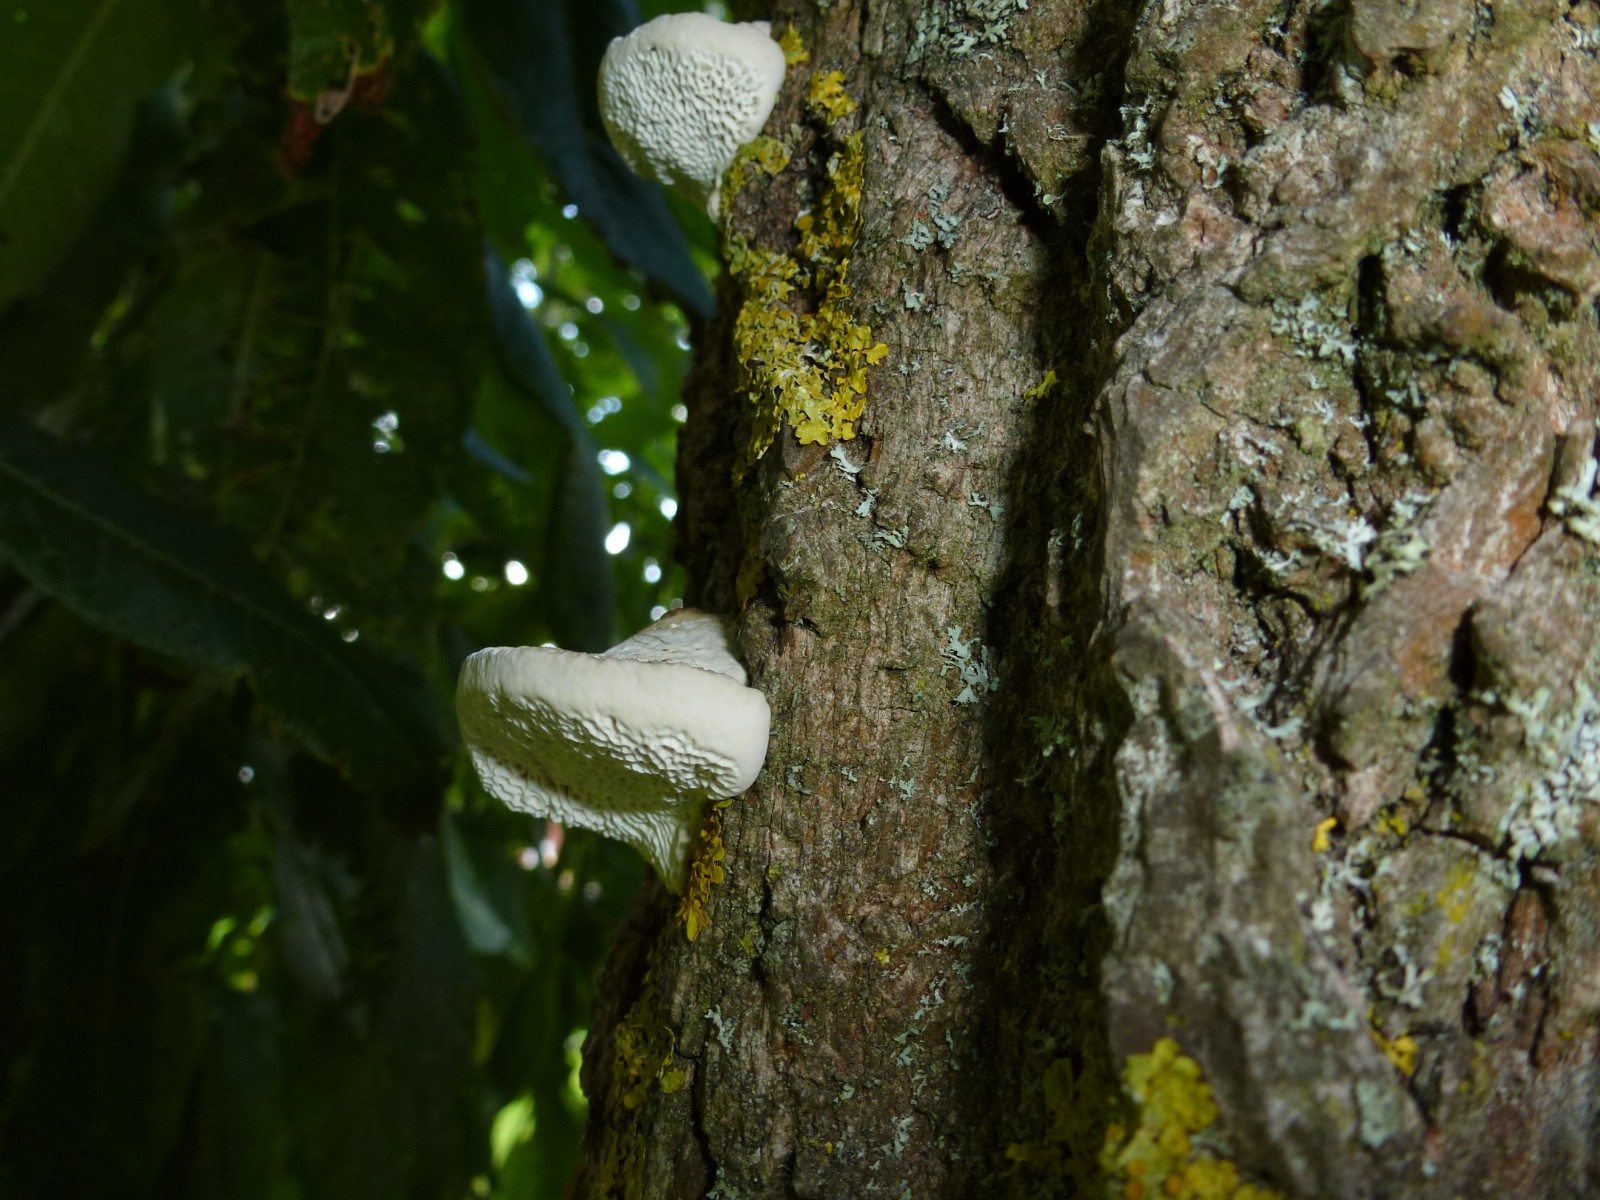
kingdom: Fungi
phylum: Basidiomycota
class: Agaricomycetes
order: Polyporales
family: Polyporaceae
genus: Trametes
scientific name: Trametes gibbosa
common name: puklet læderporesvamp
